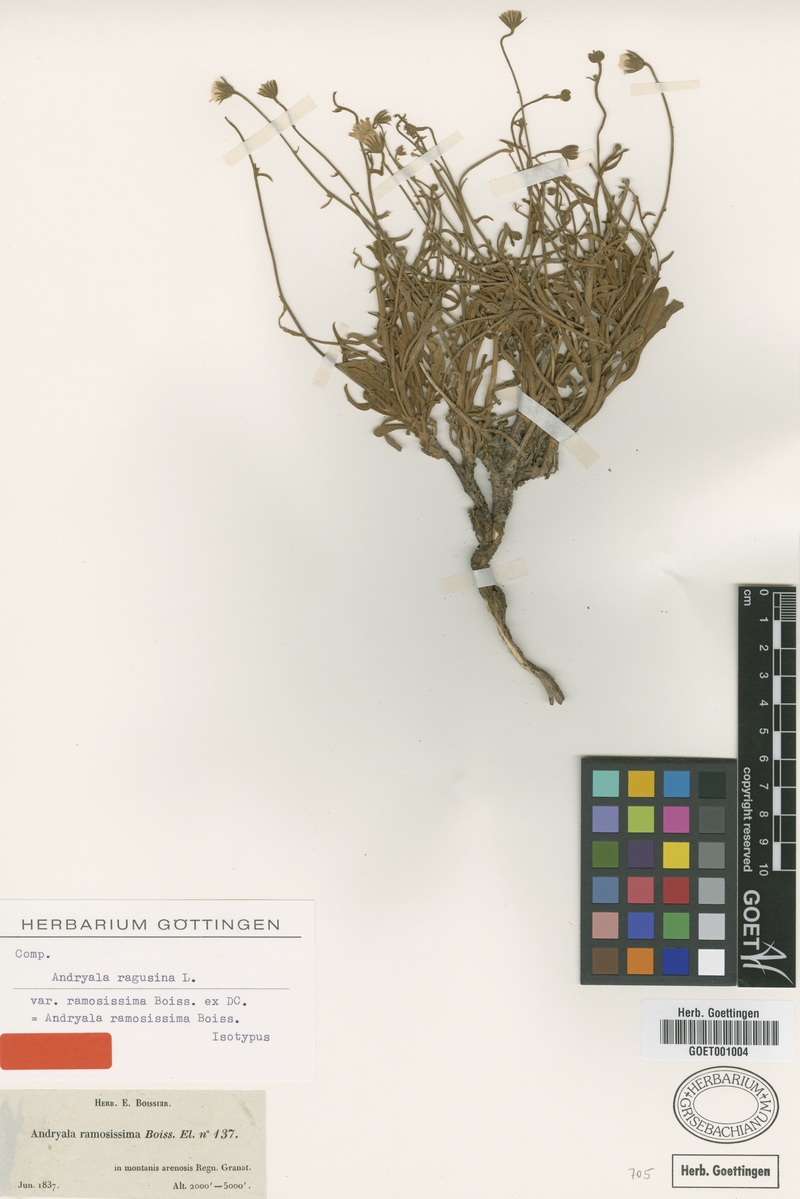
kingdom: Plantae
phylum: Tracheophyta
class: Magnoliopsida
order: Asterales
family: Asteraceae
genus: Andryala
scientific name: Andryala ragusina
